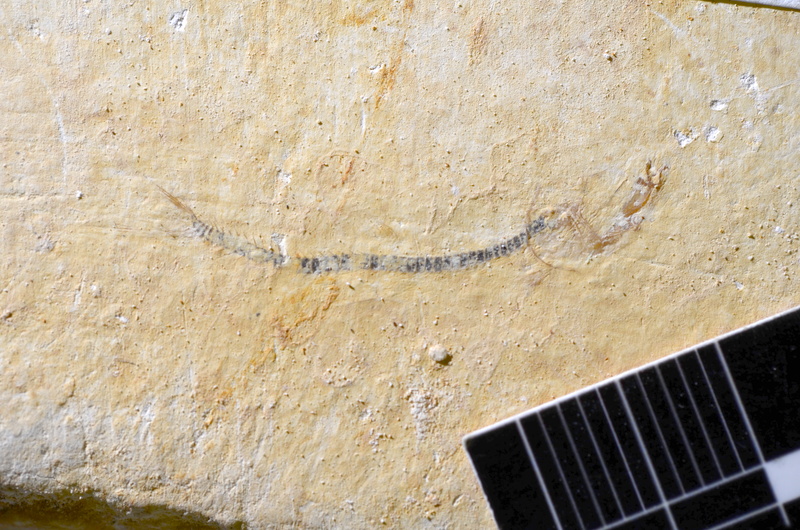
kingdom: Animalia
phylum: Chordata
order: Salmoniformes
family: Orthogonikleithridae
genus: Orthogonikleithrus
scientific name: Orthogonikleithrus hoelli
